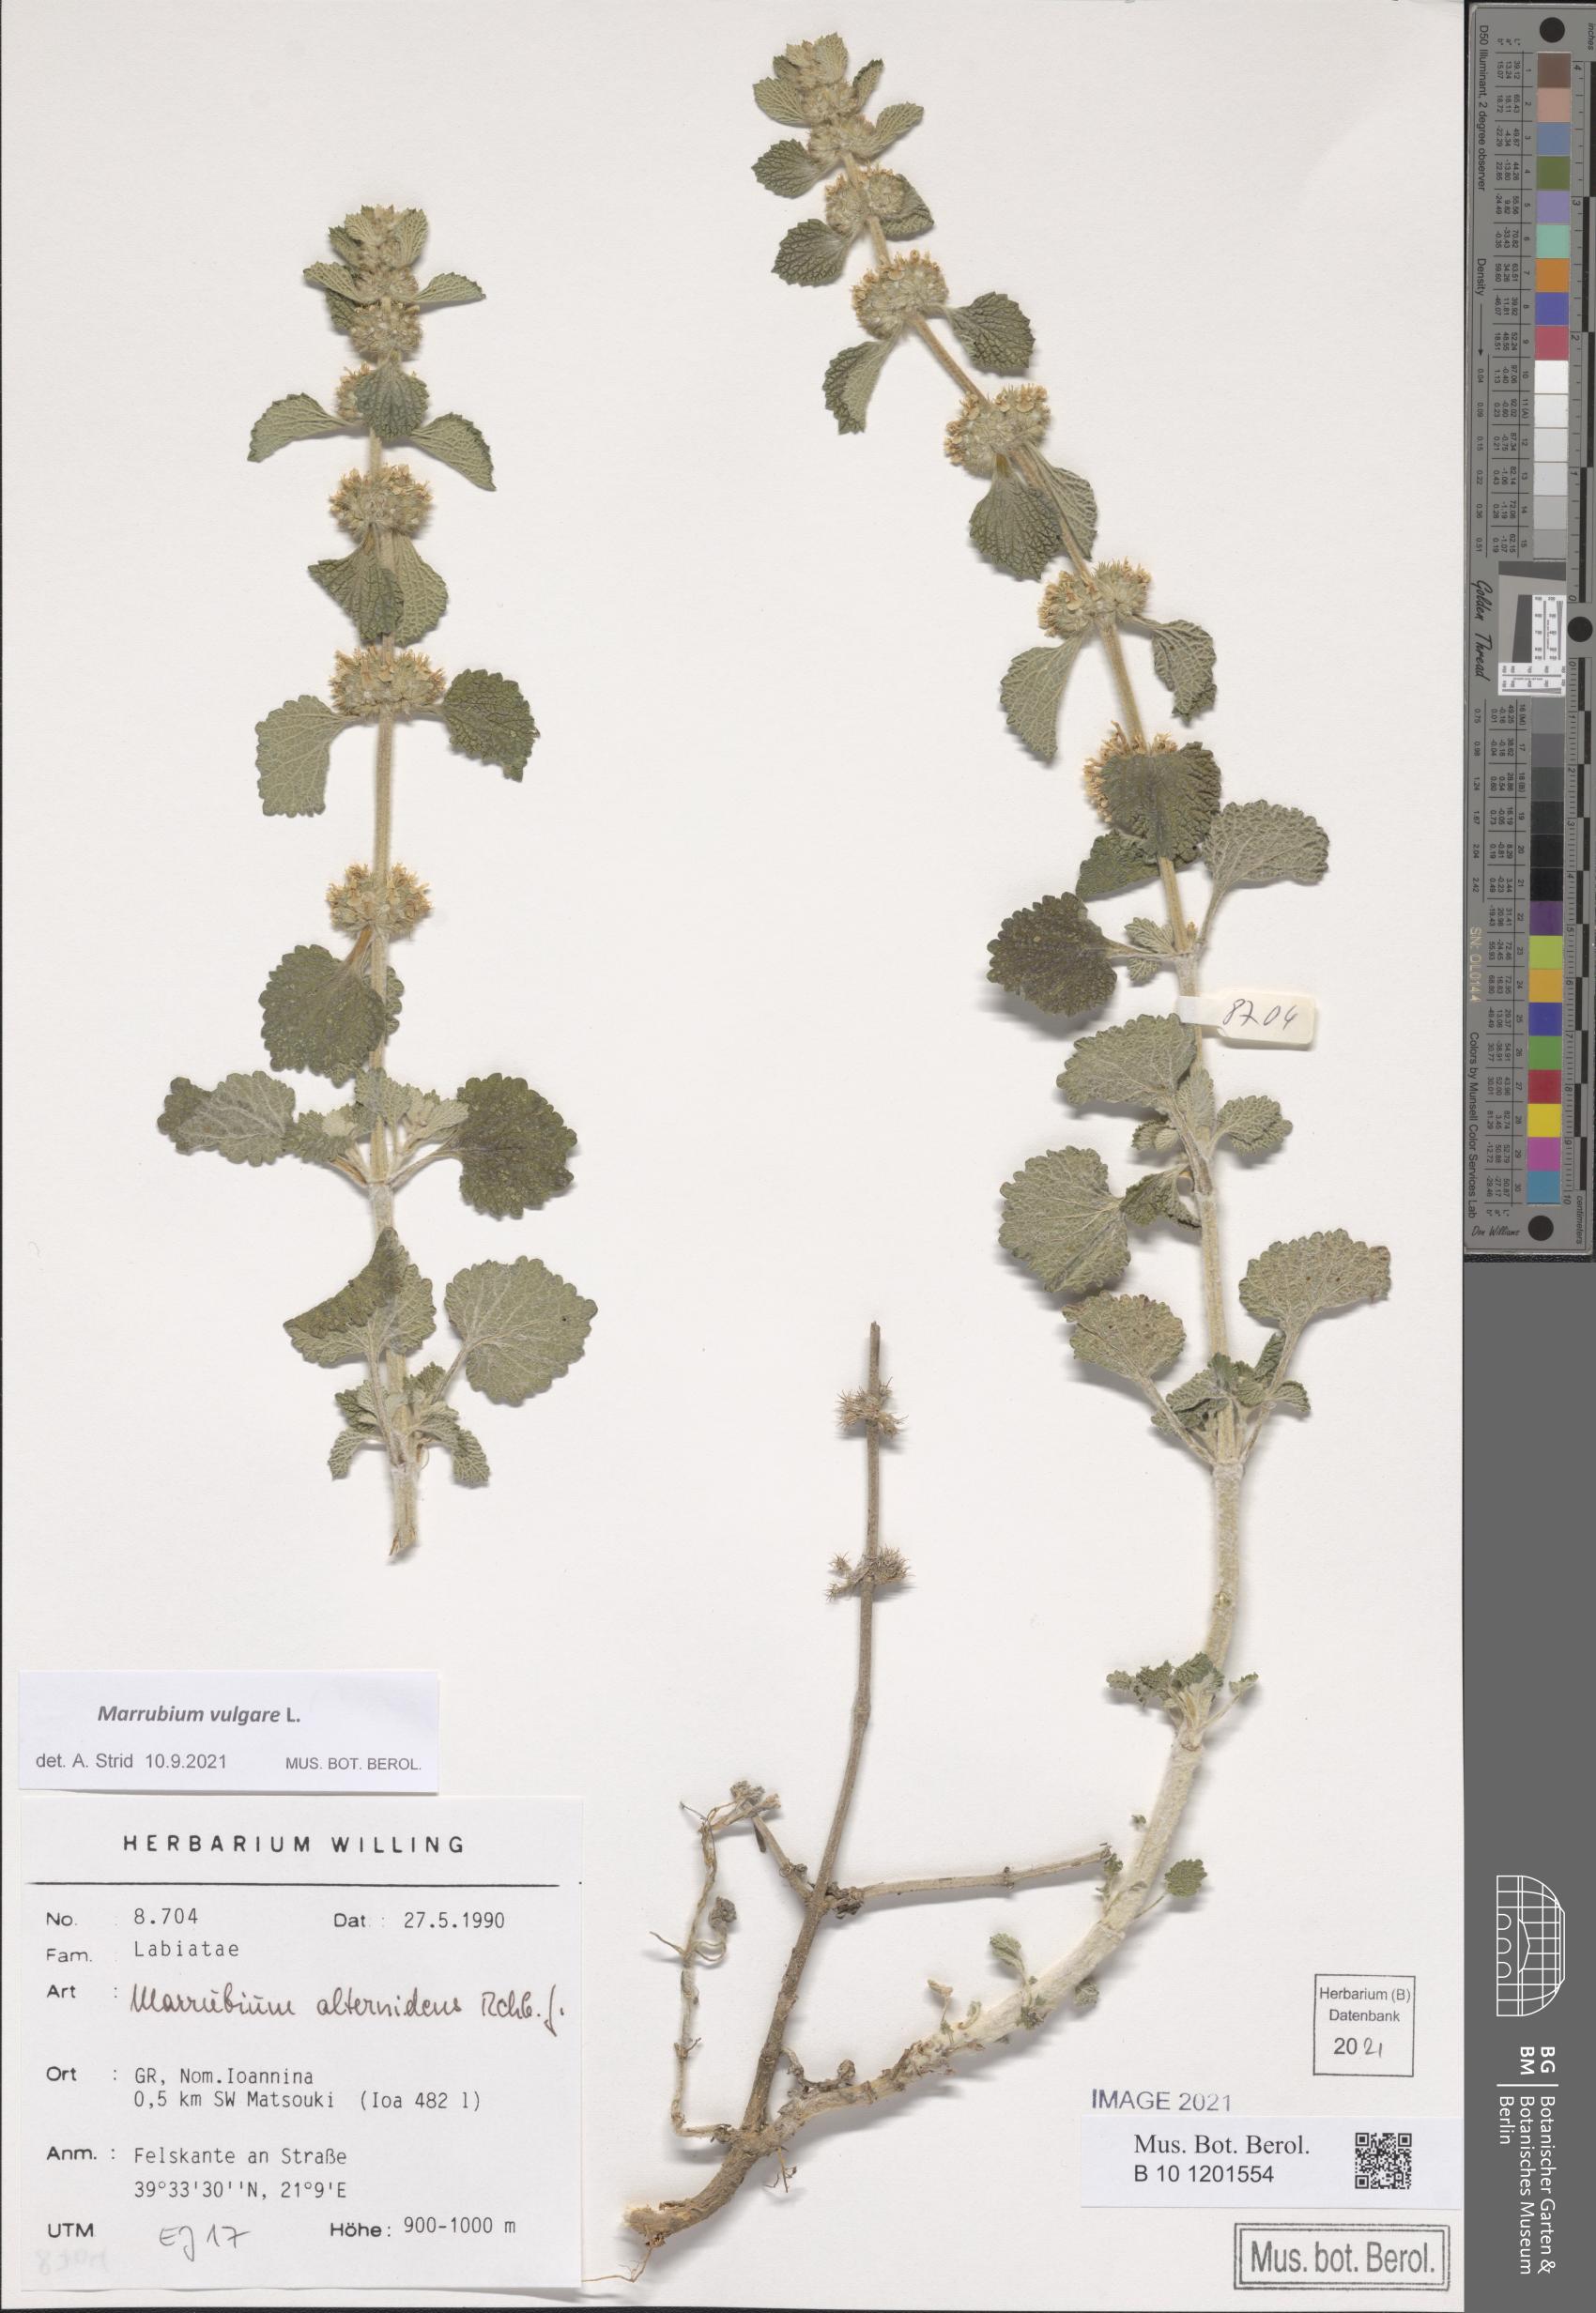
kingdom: Plantae
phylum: Tracheophyta
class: Magnoliopsida
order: Lamiales
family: Lamiaceae
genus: Marrubium
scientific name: Marrubium vulgare
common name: Horehound
